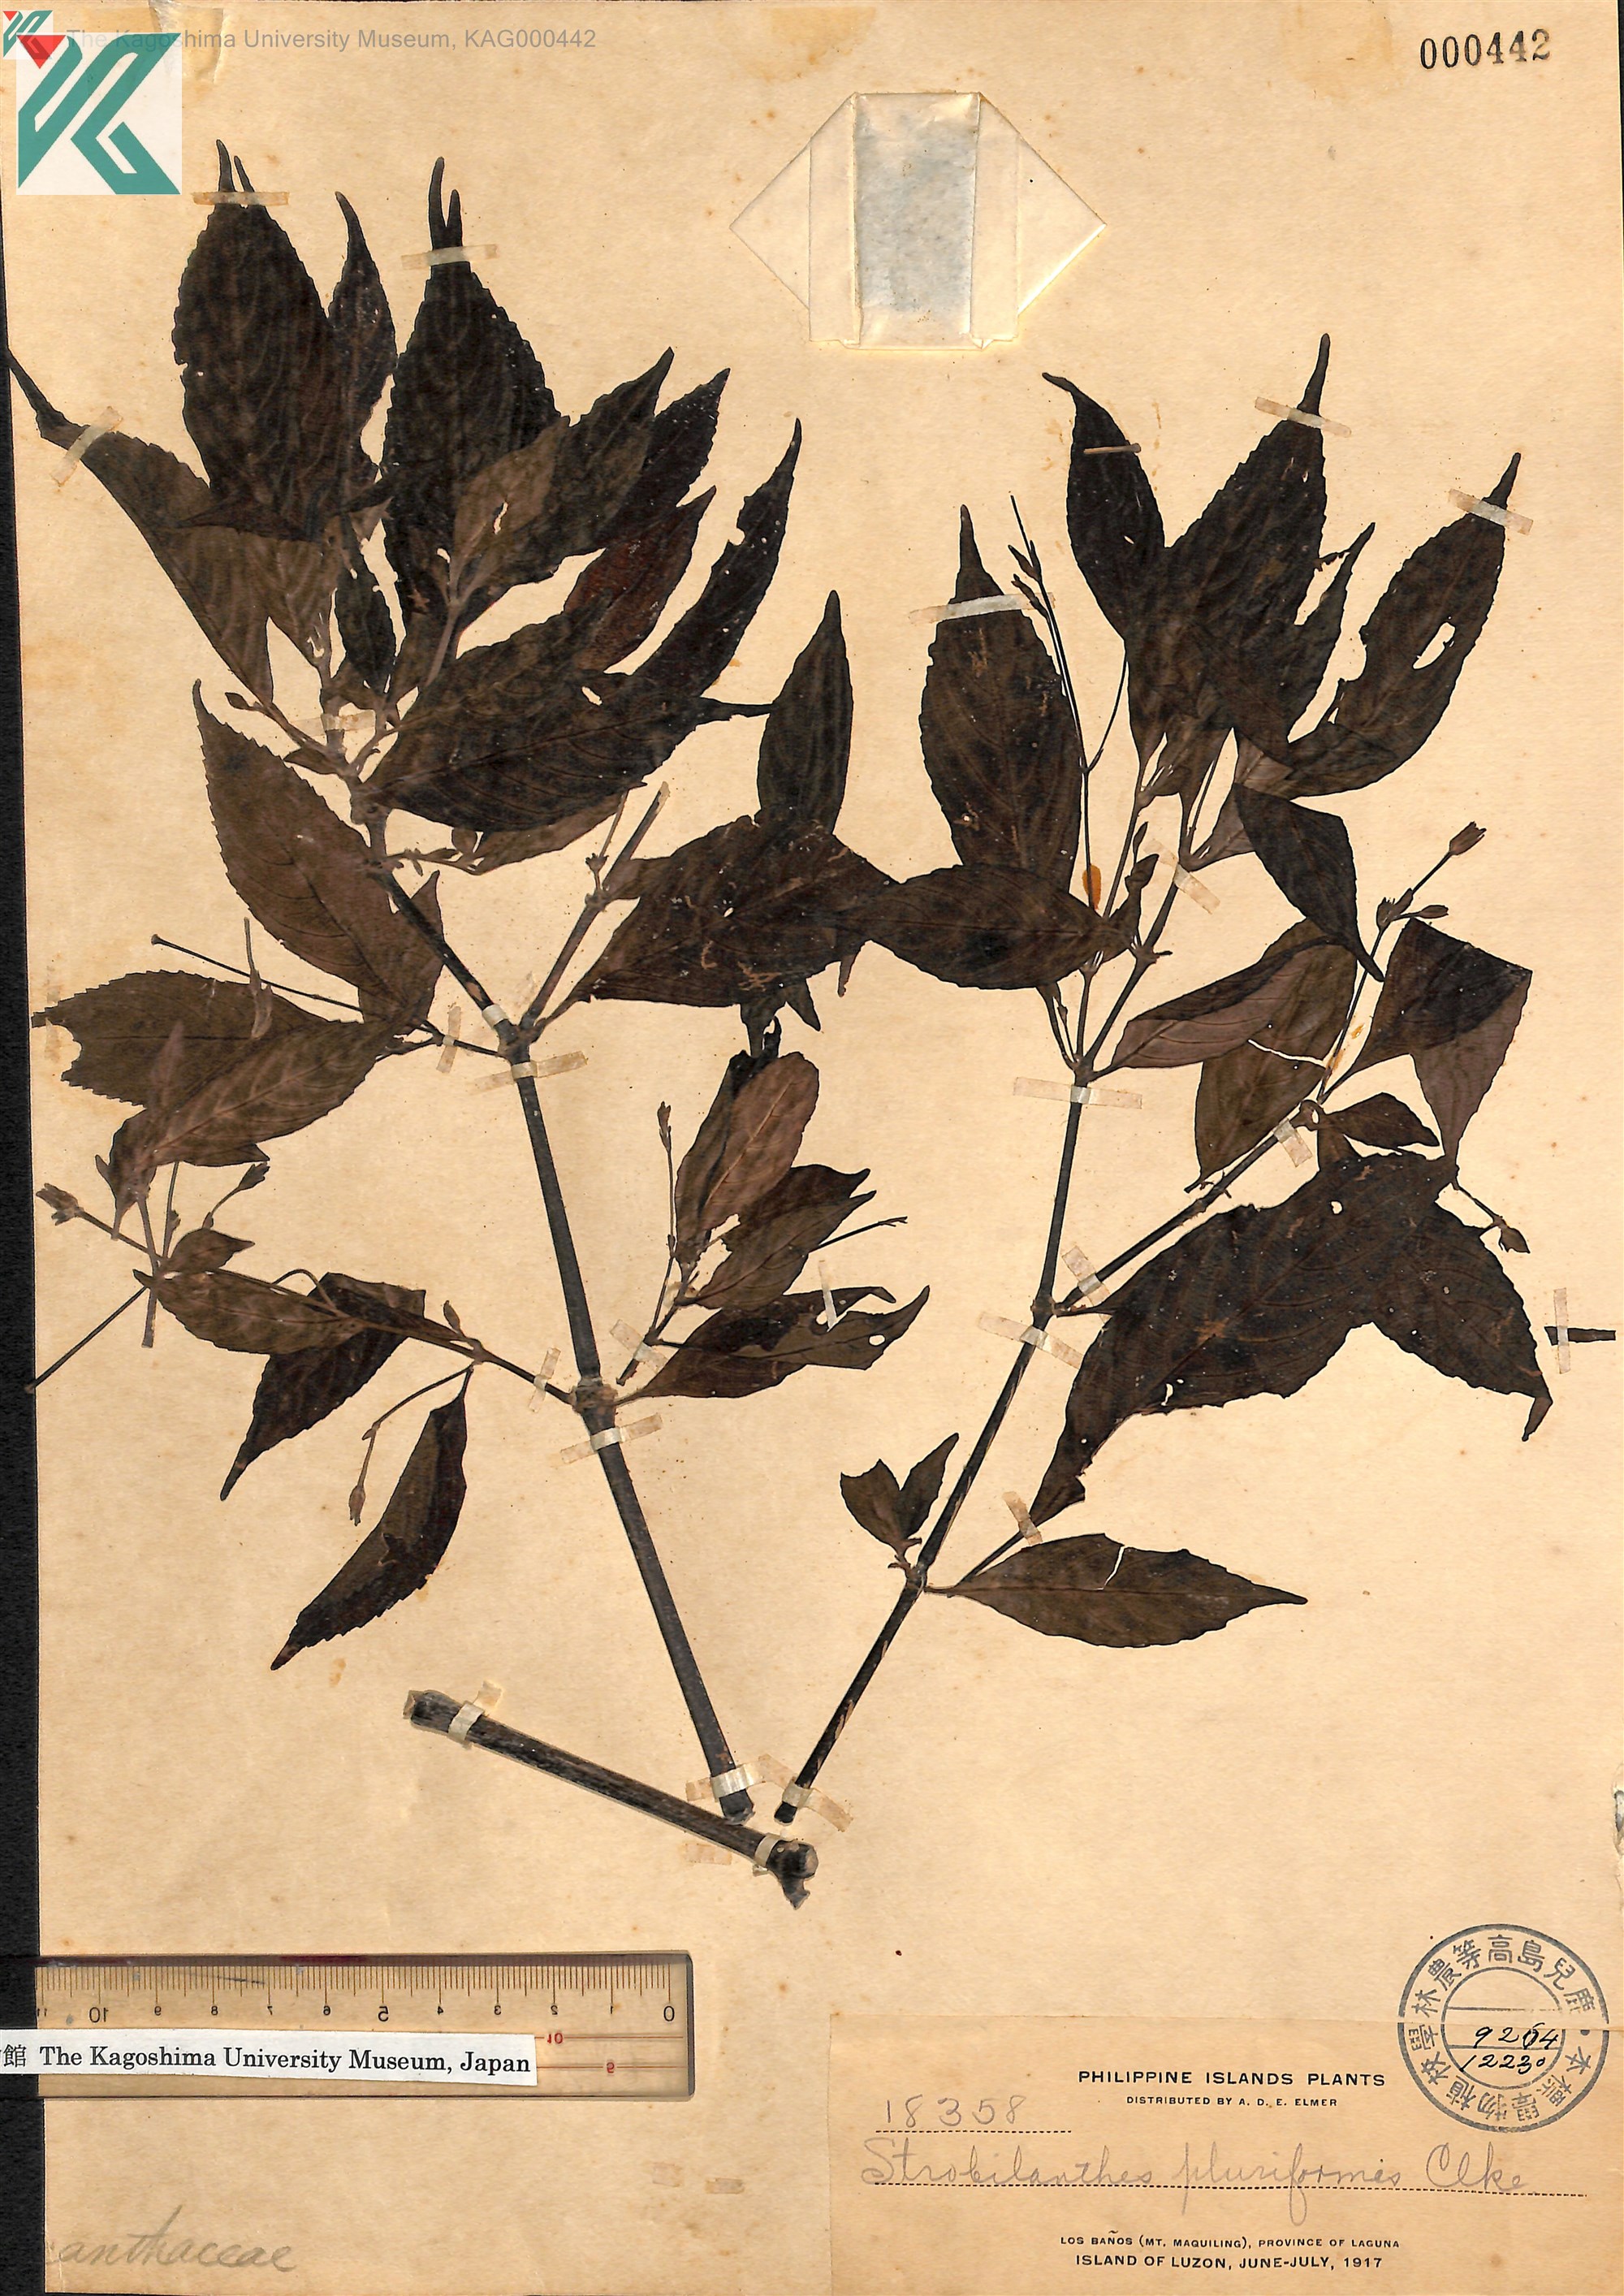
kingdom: Plantae
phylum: Tracheophyta
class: Magnoliopsida
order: Lamiales
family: Acanthaceae
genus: Strobilanthes
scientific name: Strobilanthes pluriformis
